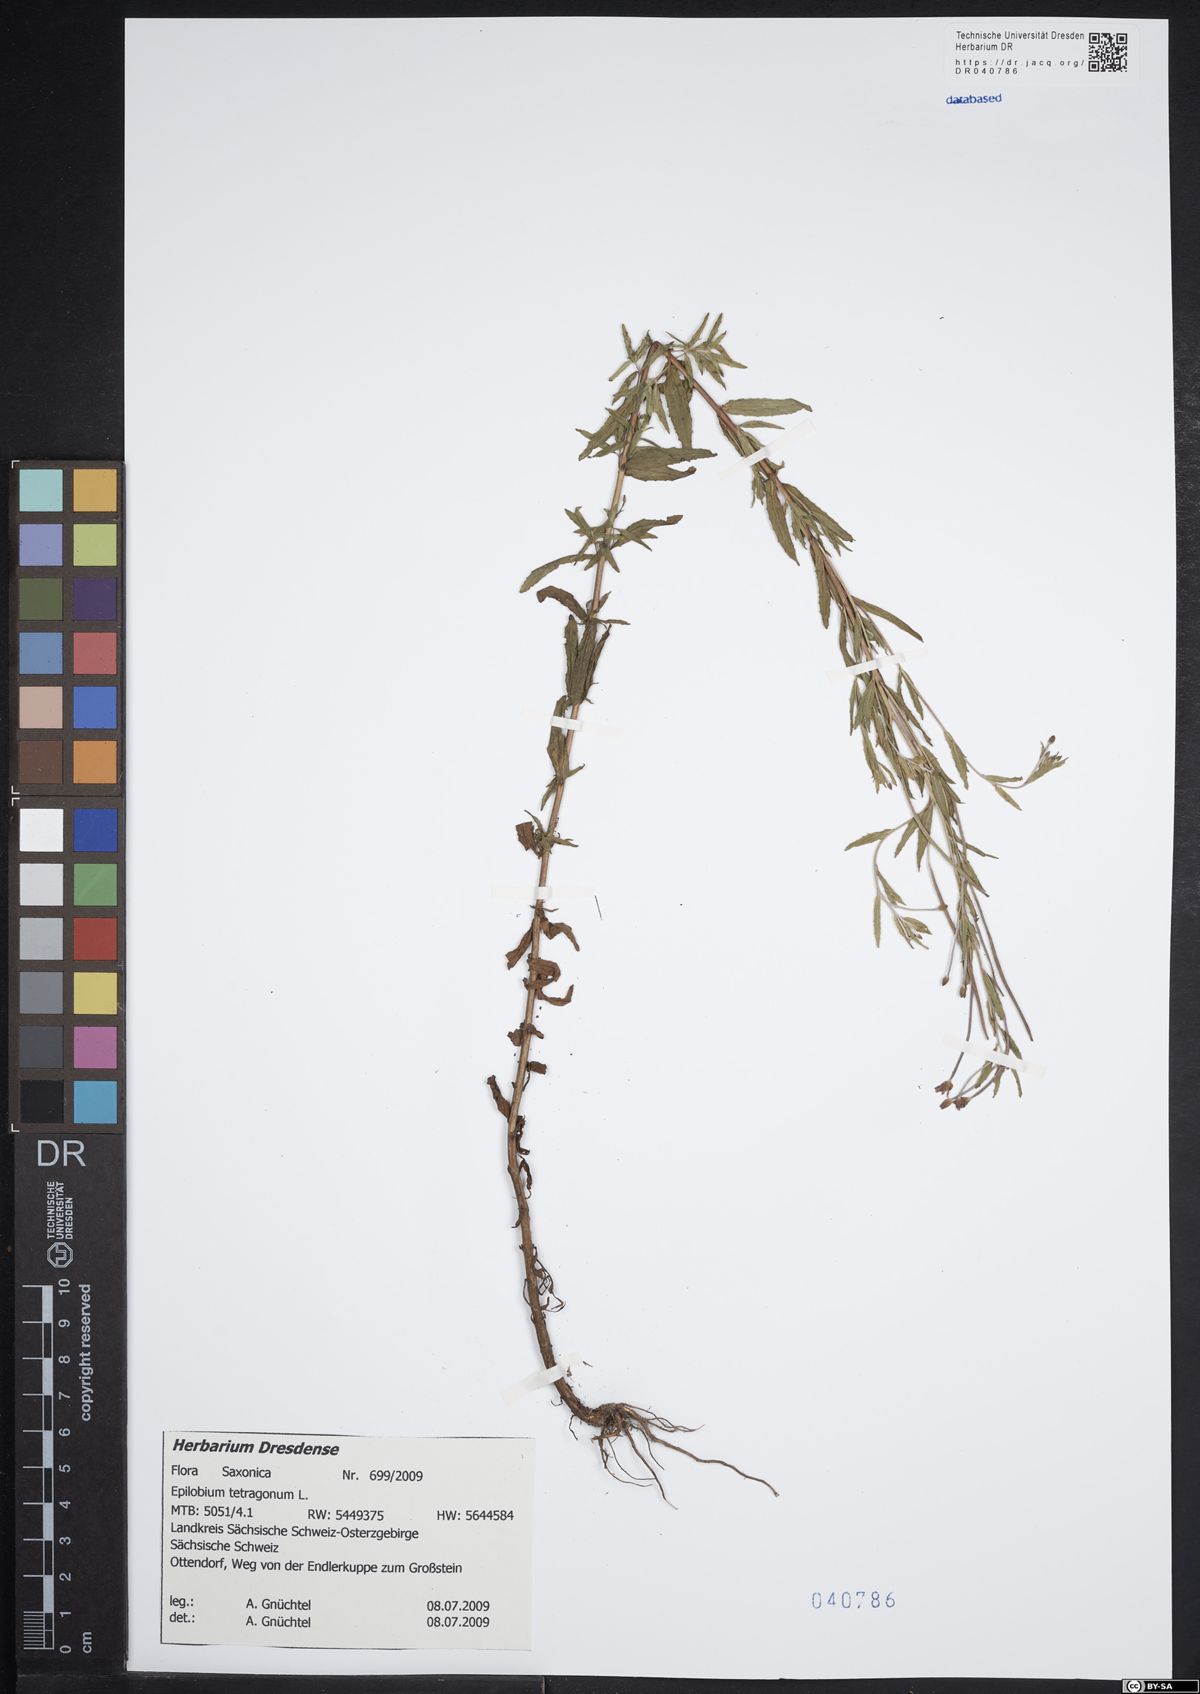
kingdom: Plantae
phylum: Tracheophyta
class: Magnoliopsida
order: Myrtales
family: Onagraceae
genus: Epilobium
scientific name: Epilobium tetragonum
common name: Square-stemmed willowherb
